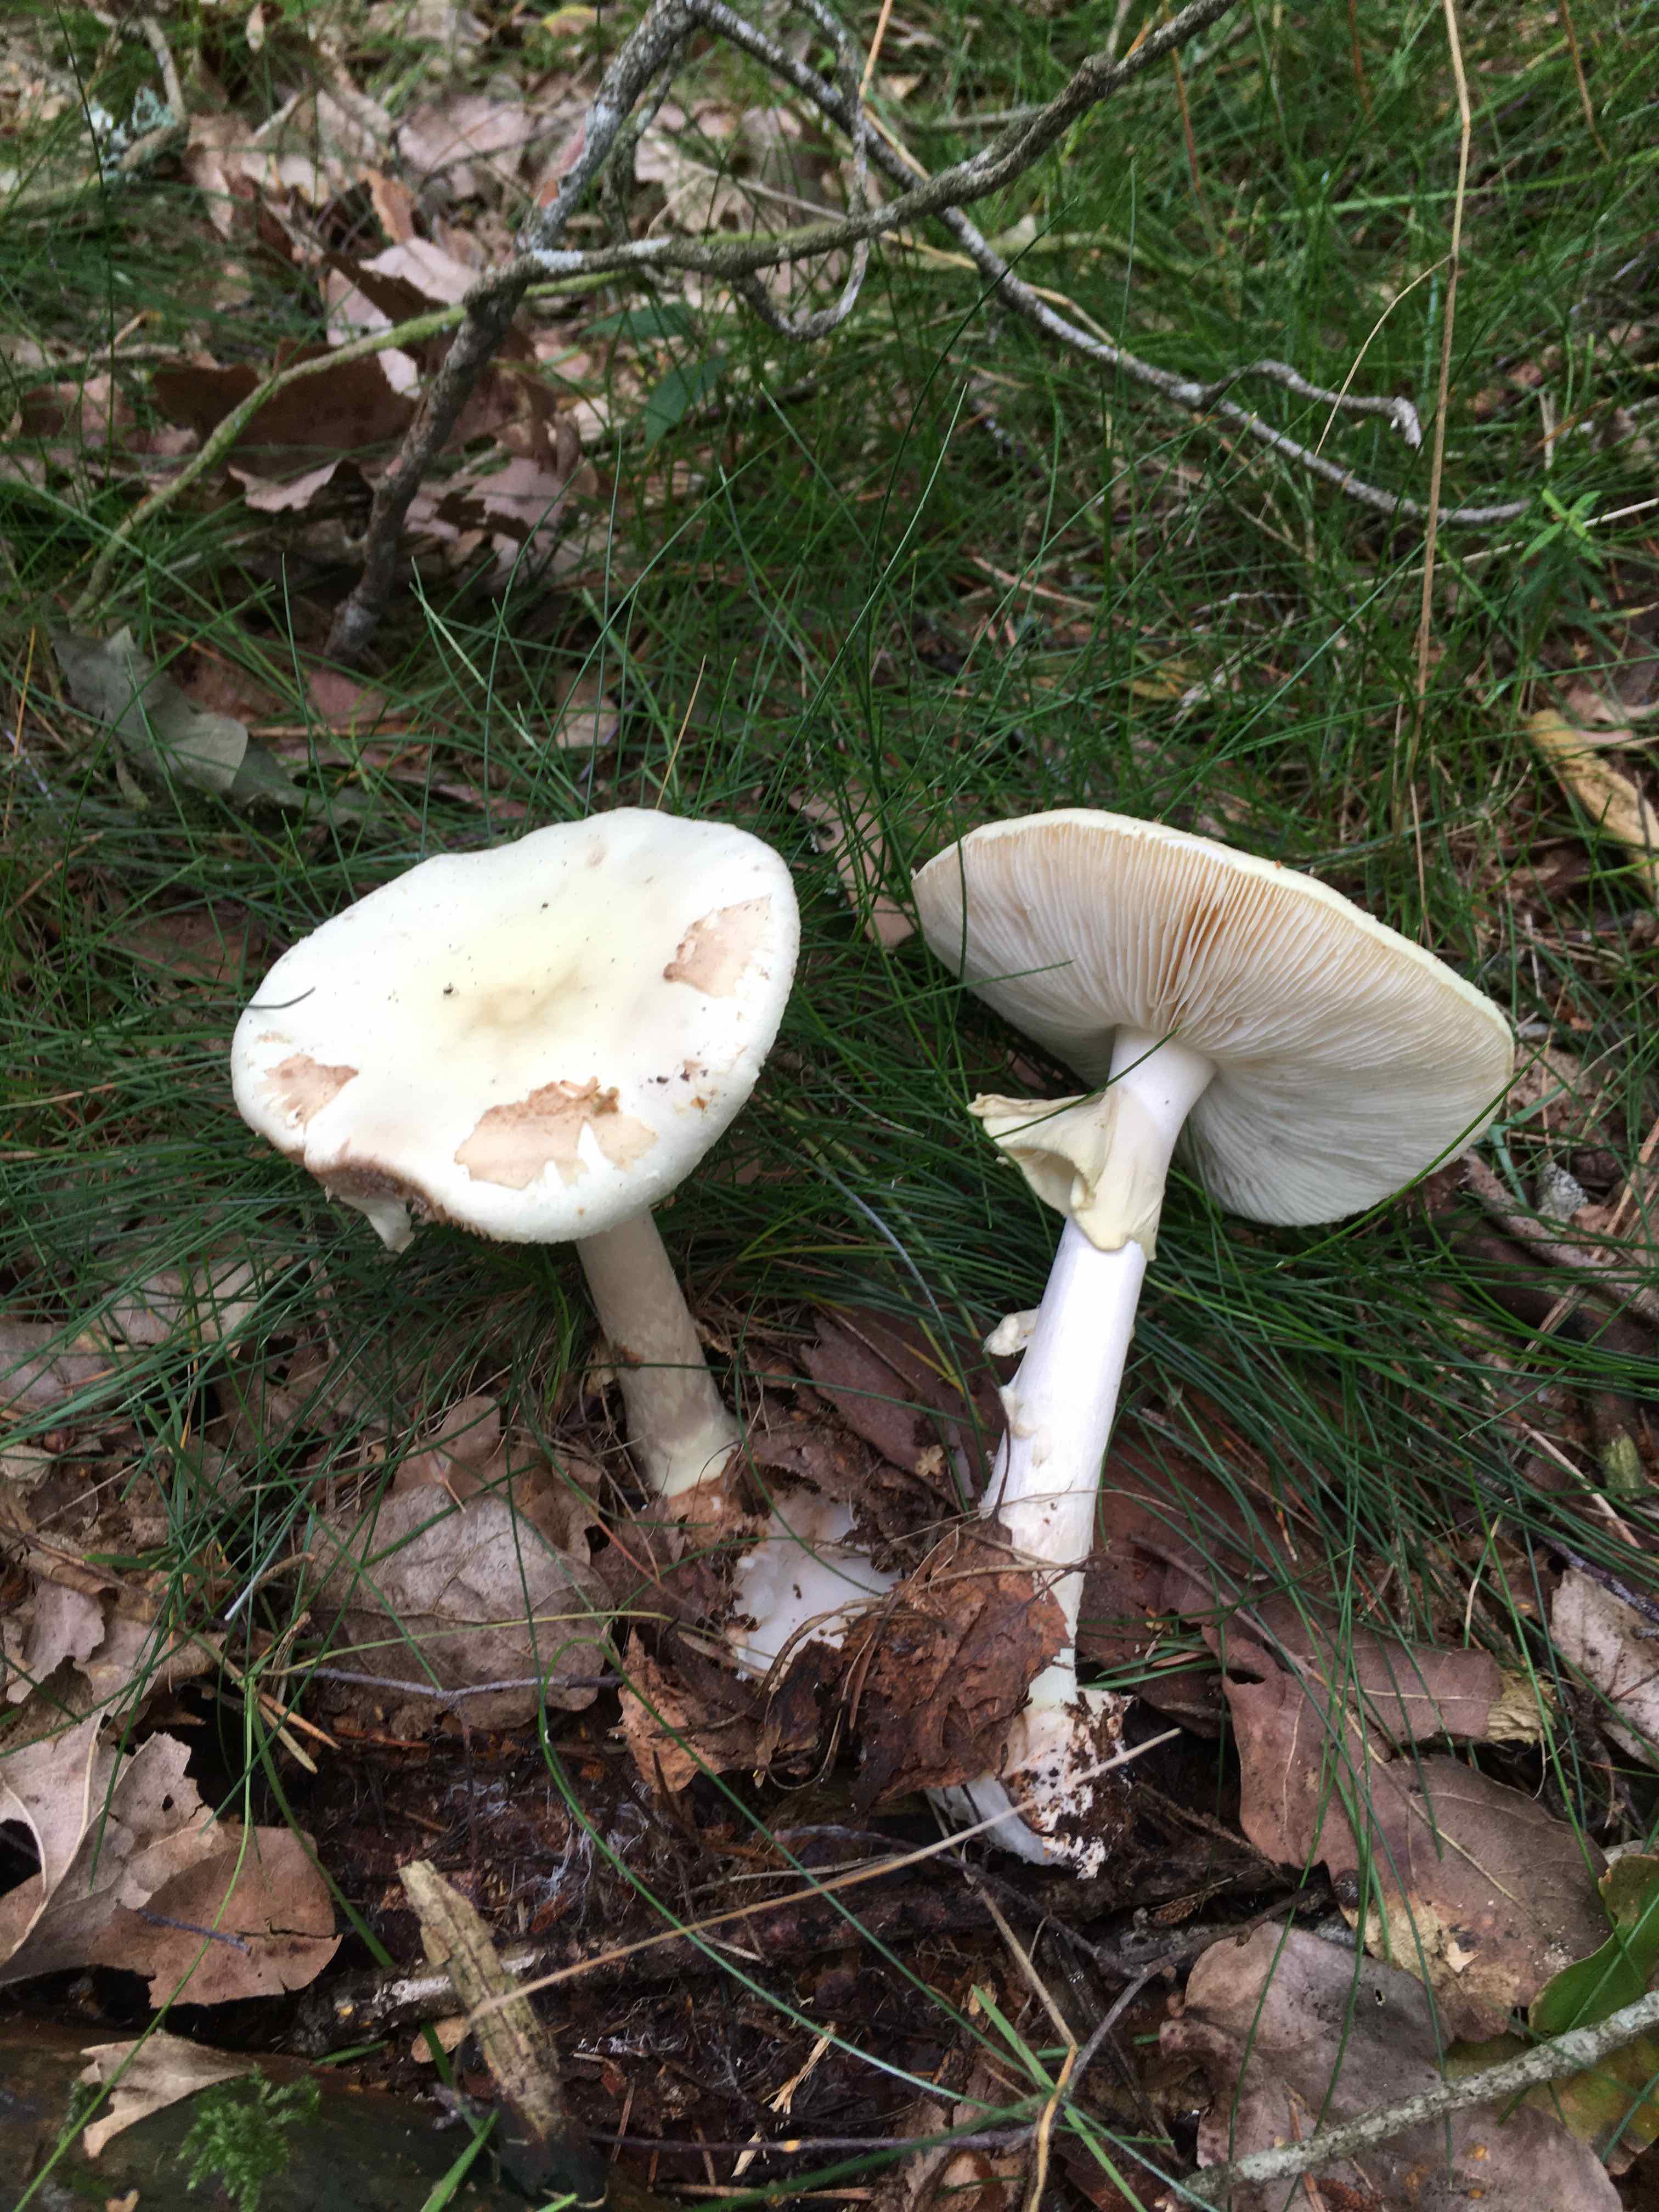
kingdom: Fungi
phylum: Basidiomycota
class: Agaricomycetes
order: Agaricales
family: Amanitaceae
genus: Amanita
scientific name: Amanita citrina
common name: kugleknoldet fluesvamp
